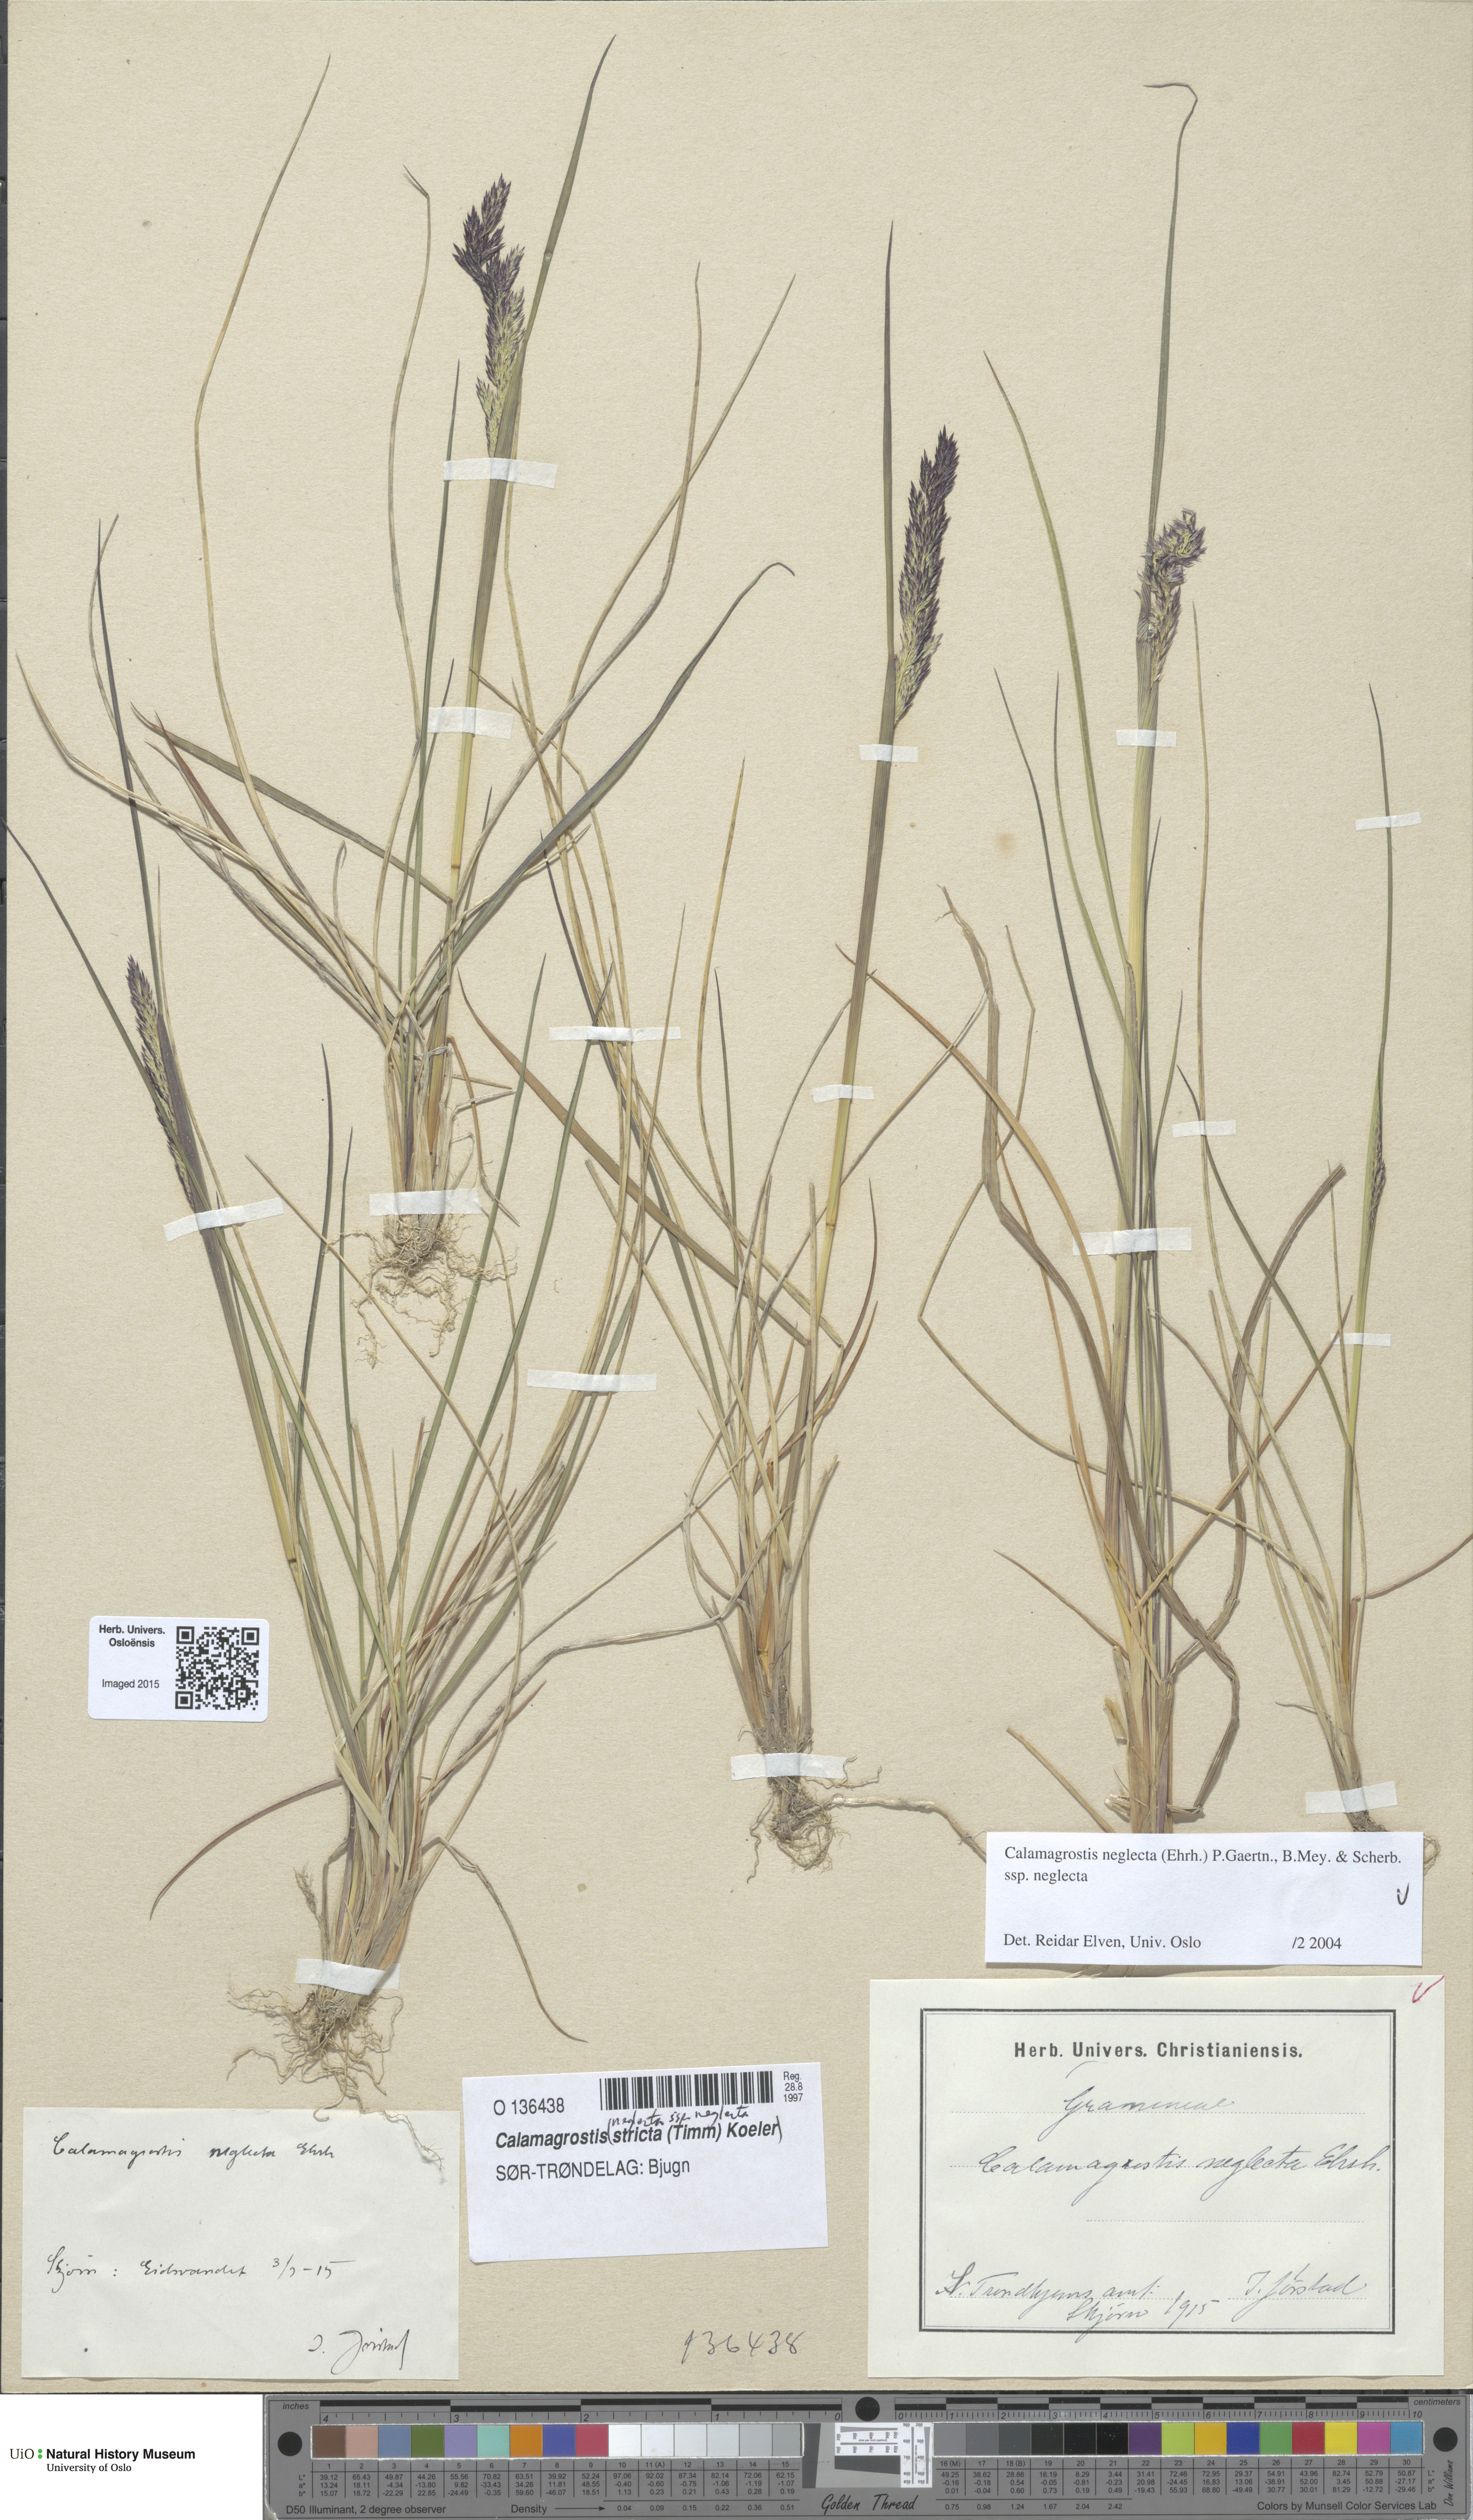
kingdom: Plantae
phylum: Tracheophyta
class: Liliopsida
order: Poales
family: Poaceae
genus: Achnatherum
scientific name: Achnatherum calamagrostis
